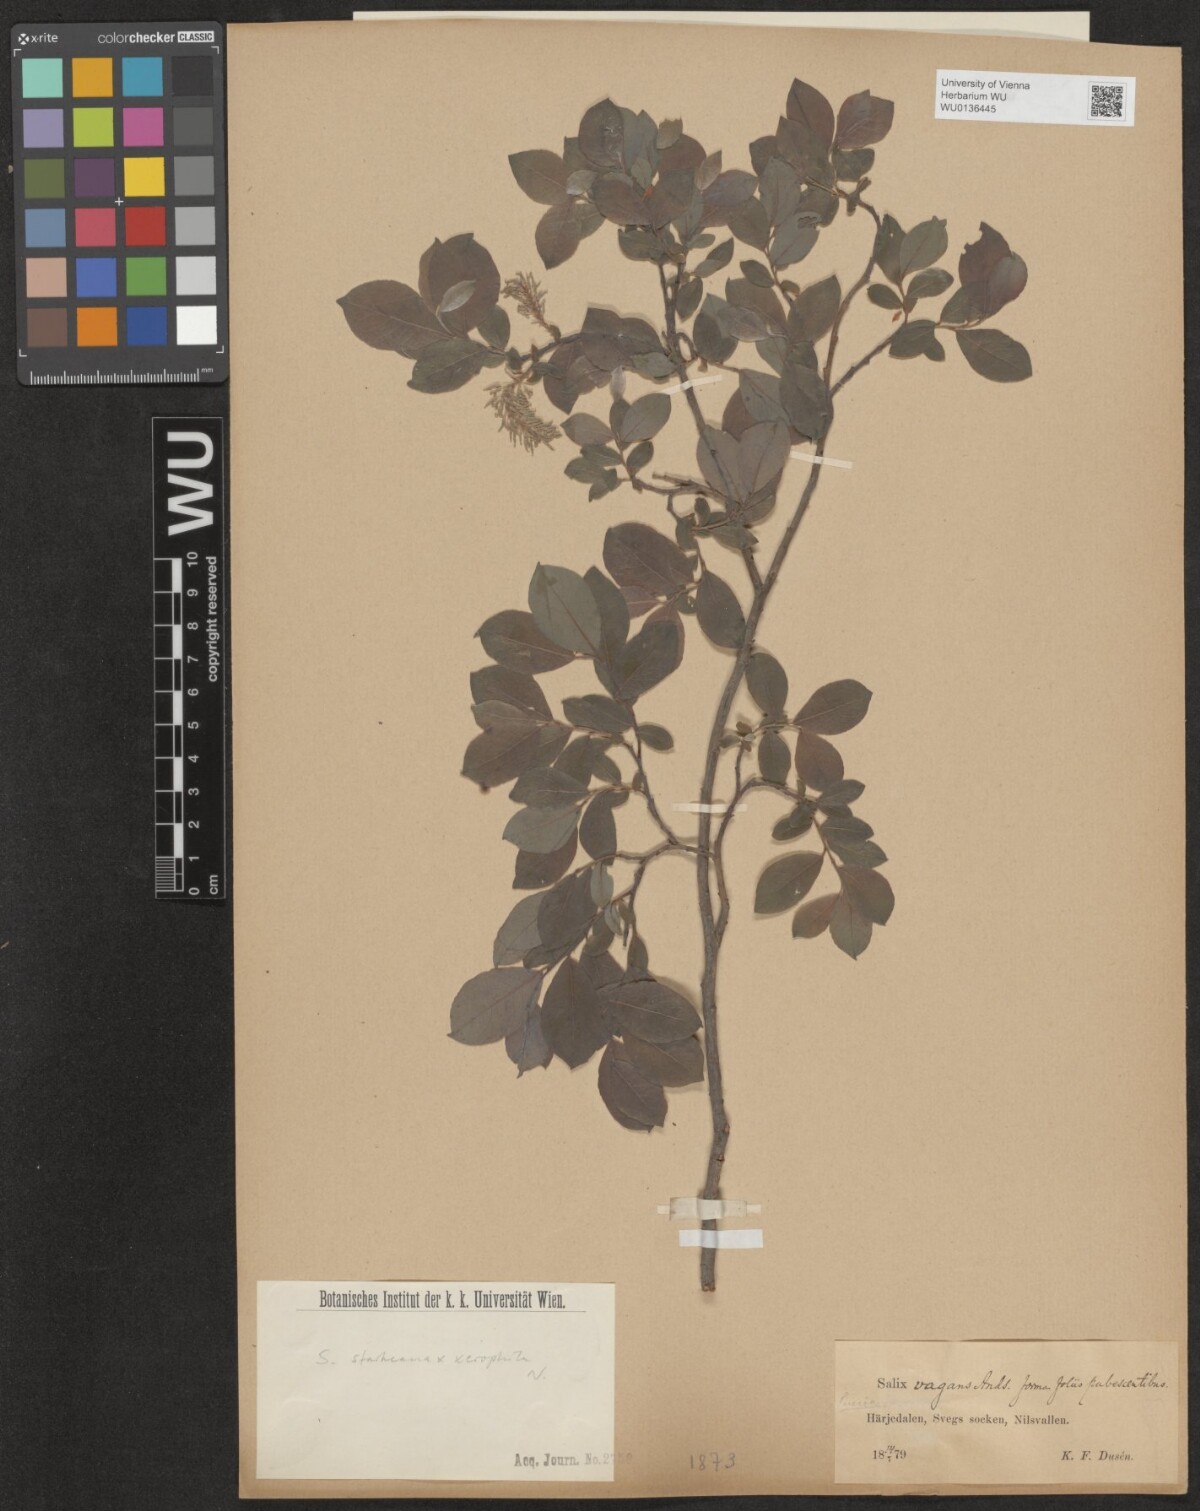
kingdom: Plantae
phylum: Tracheophyta
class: Magnoliopsida
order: Malpighiales
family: Salicaceae
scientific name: Salicaceae
